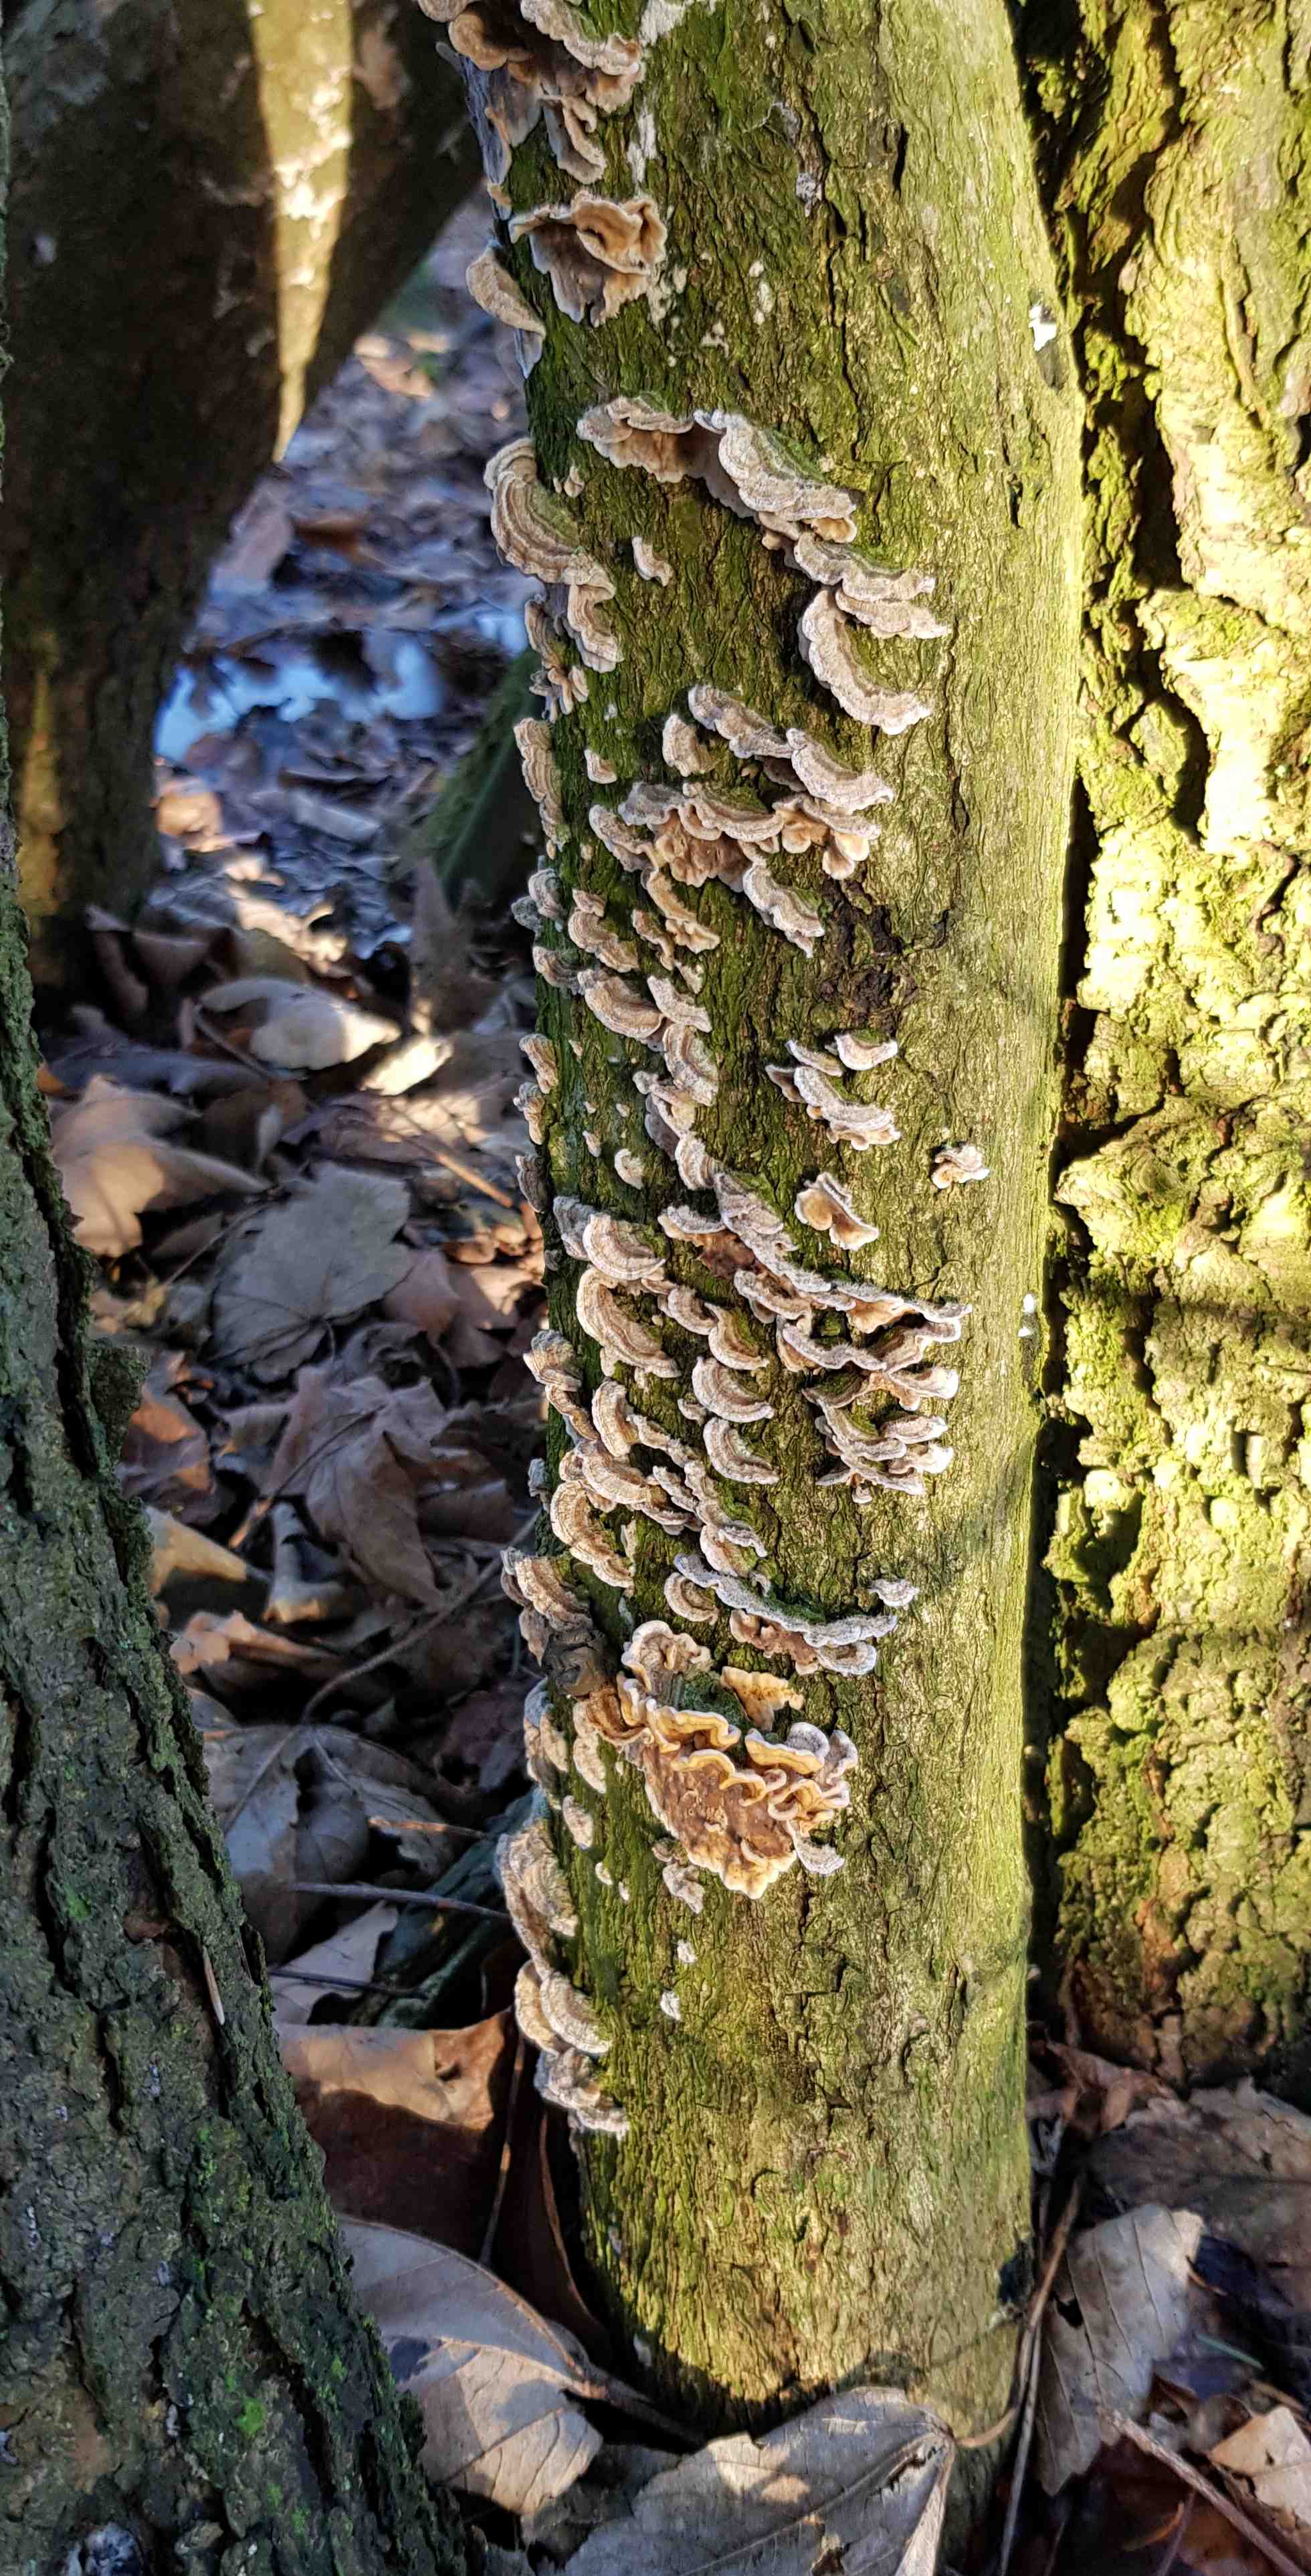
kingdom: Fungi
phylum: Basidiomycota
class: Agaricomycetes
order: Polyporales
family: Polyporaceae
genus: Trametes
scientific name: Trametes versicolor
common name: broget læderporesvamp
